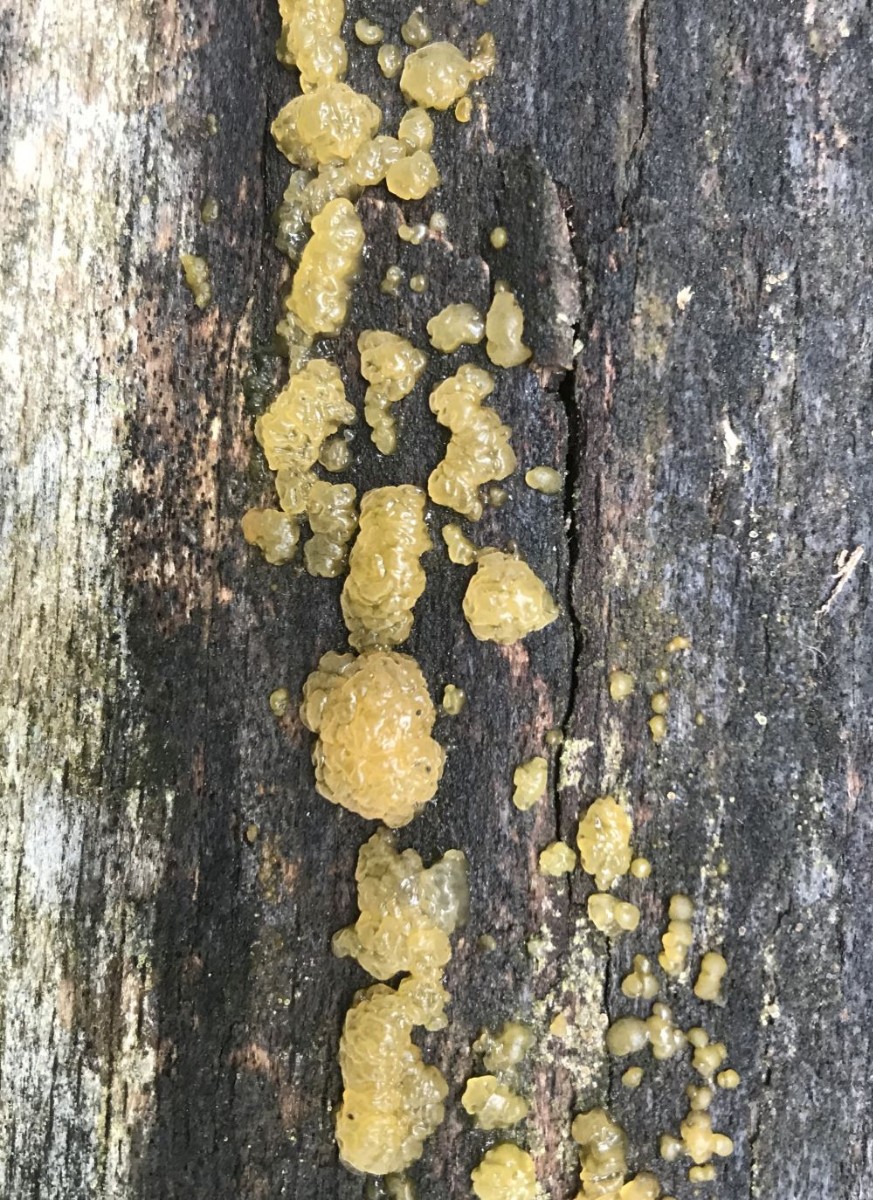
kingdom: Fungi
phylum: Basidiomycota
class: Dacrymycetes
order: Dacrymycetales
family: Dacrymycetaceae
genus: Dacrymyces
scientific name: Dacrymyces lacrymalis
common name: rynket tåresvamp
